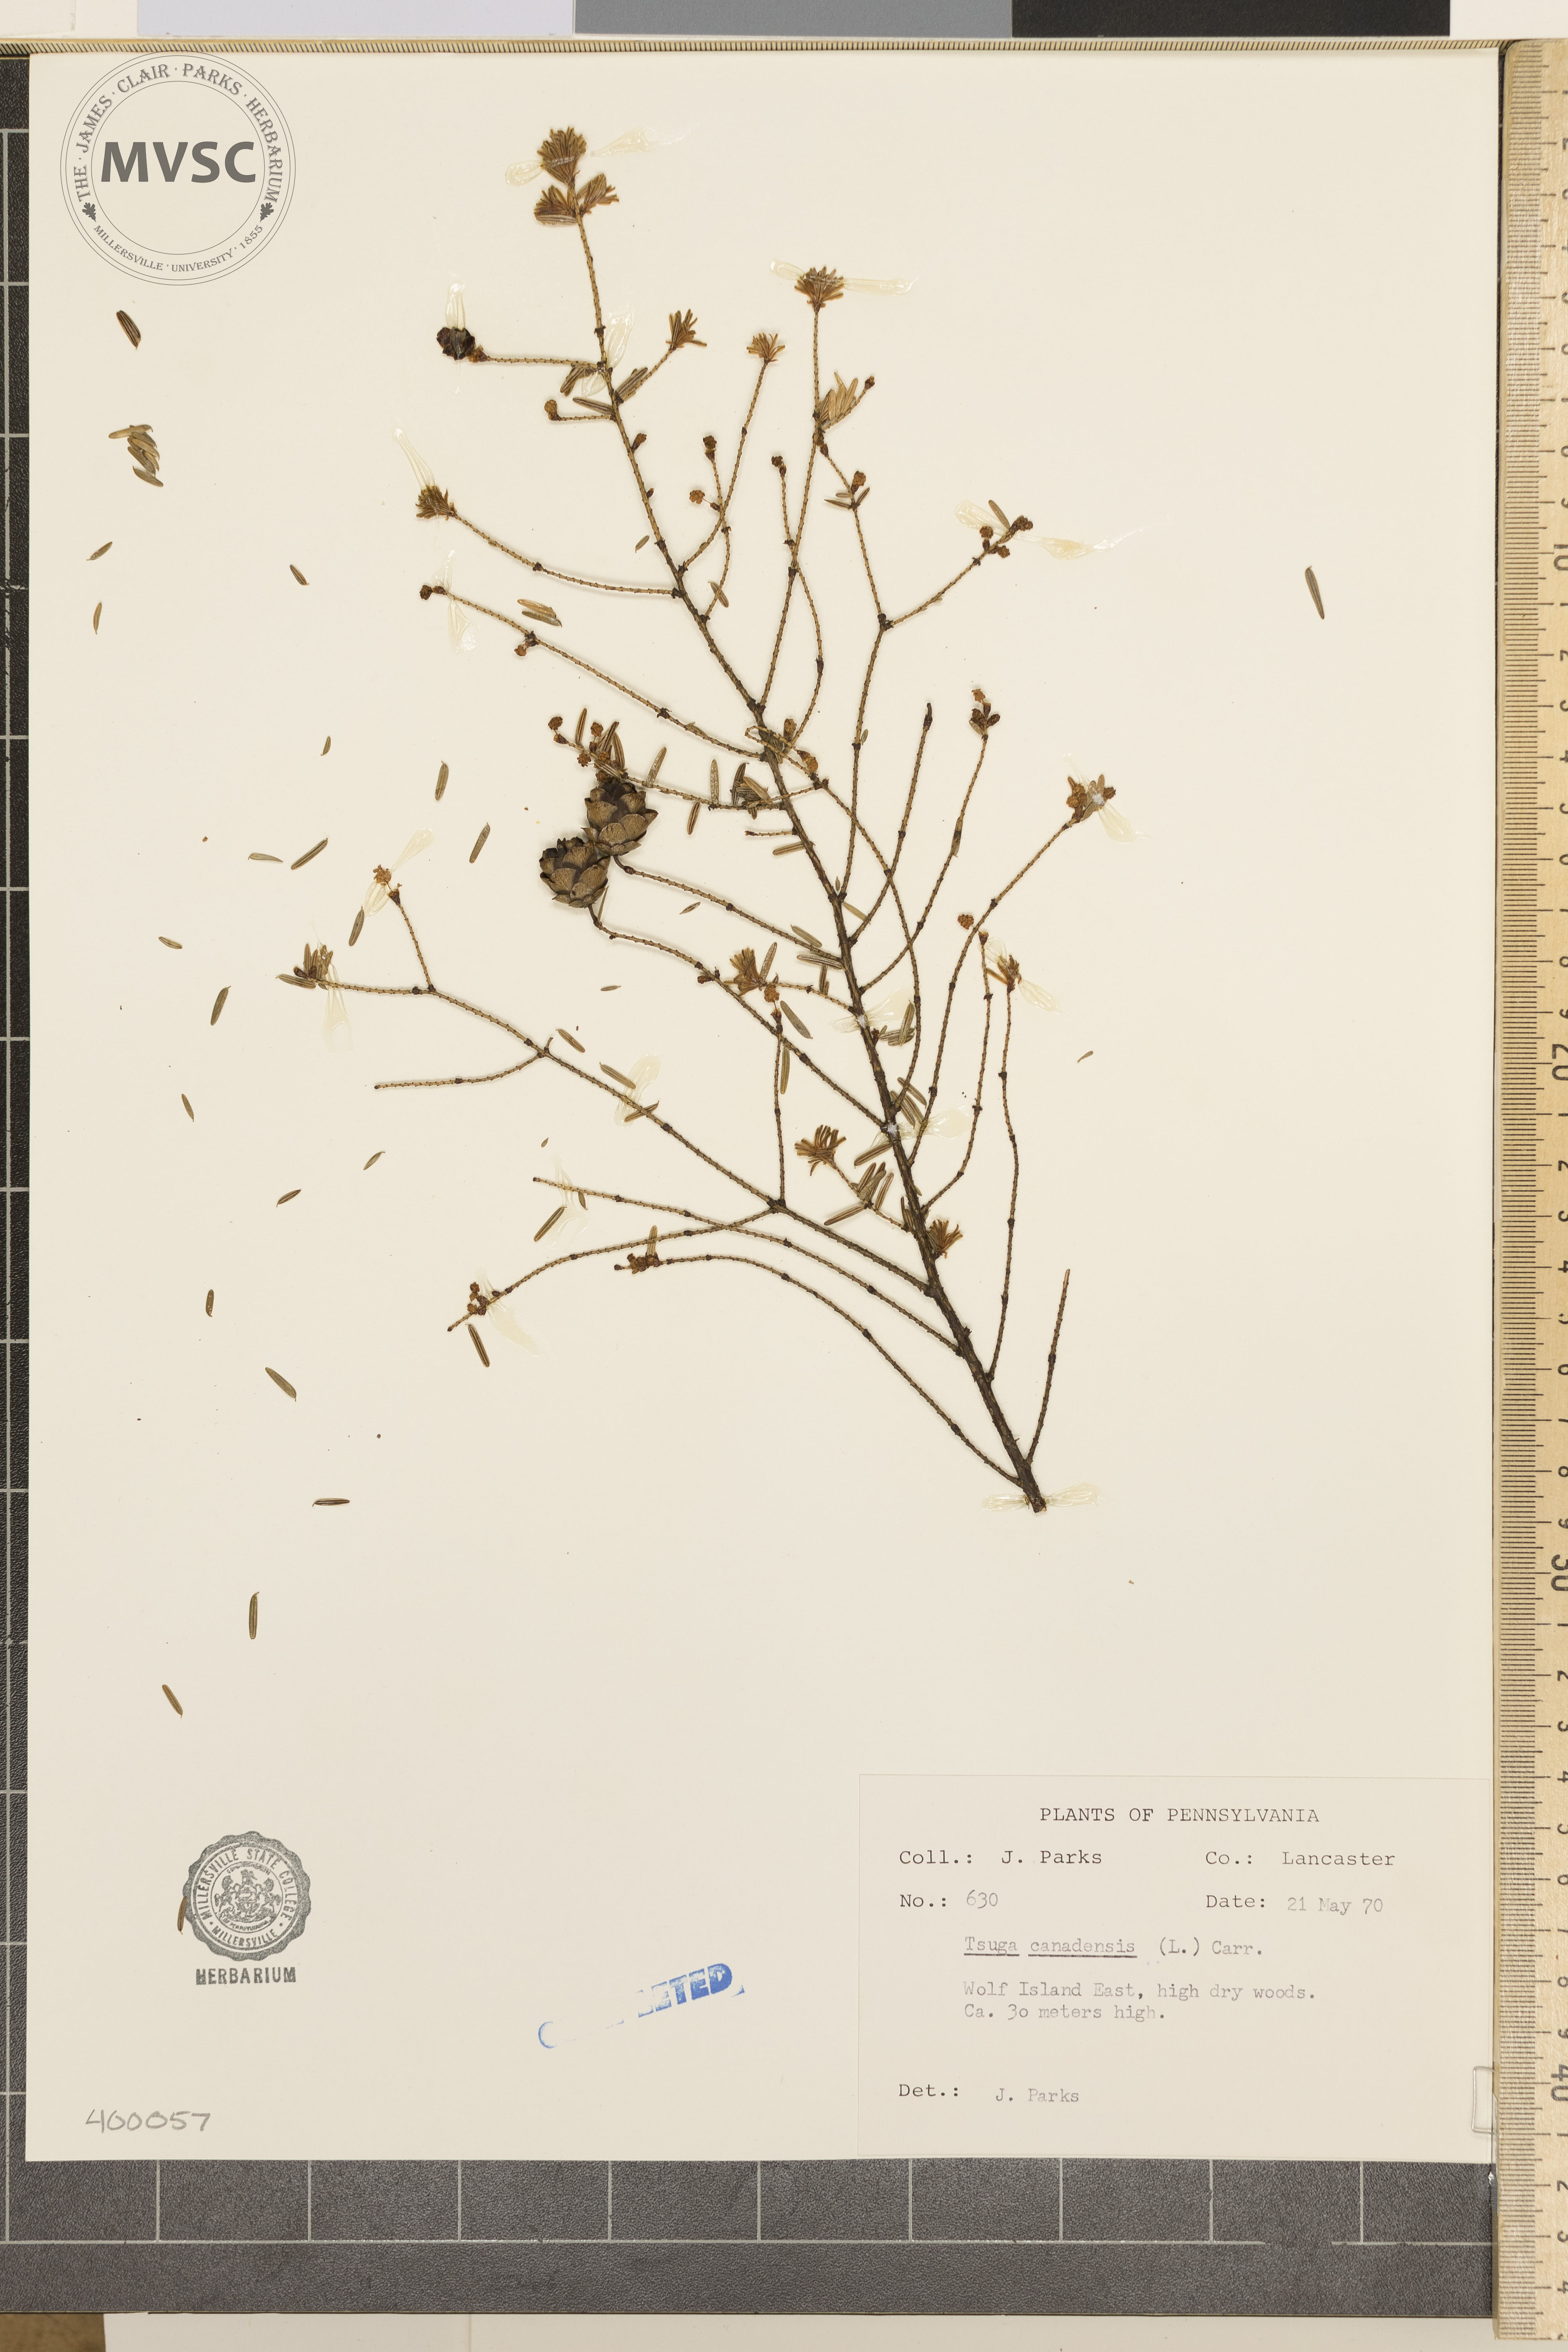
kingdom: Plantae
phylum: Tracheophyta
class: Pinopsida
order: Pinales
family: Pinaceae
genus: Tsuga
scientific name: Tsuga canadensis
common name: Eastern hemlock
